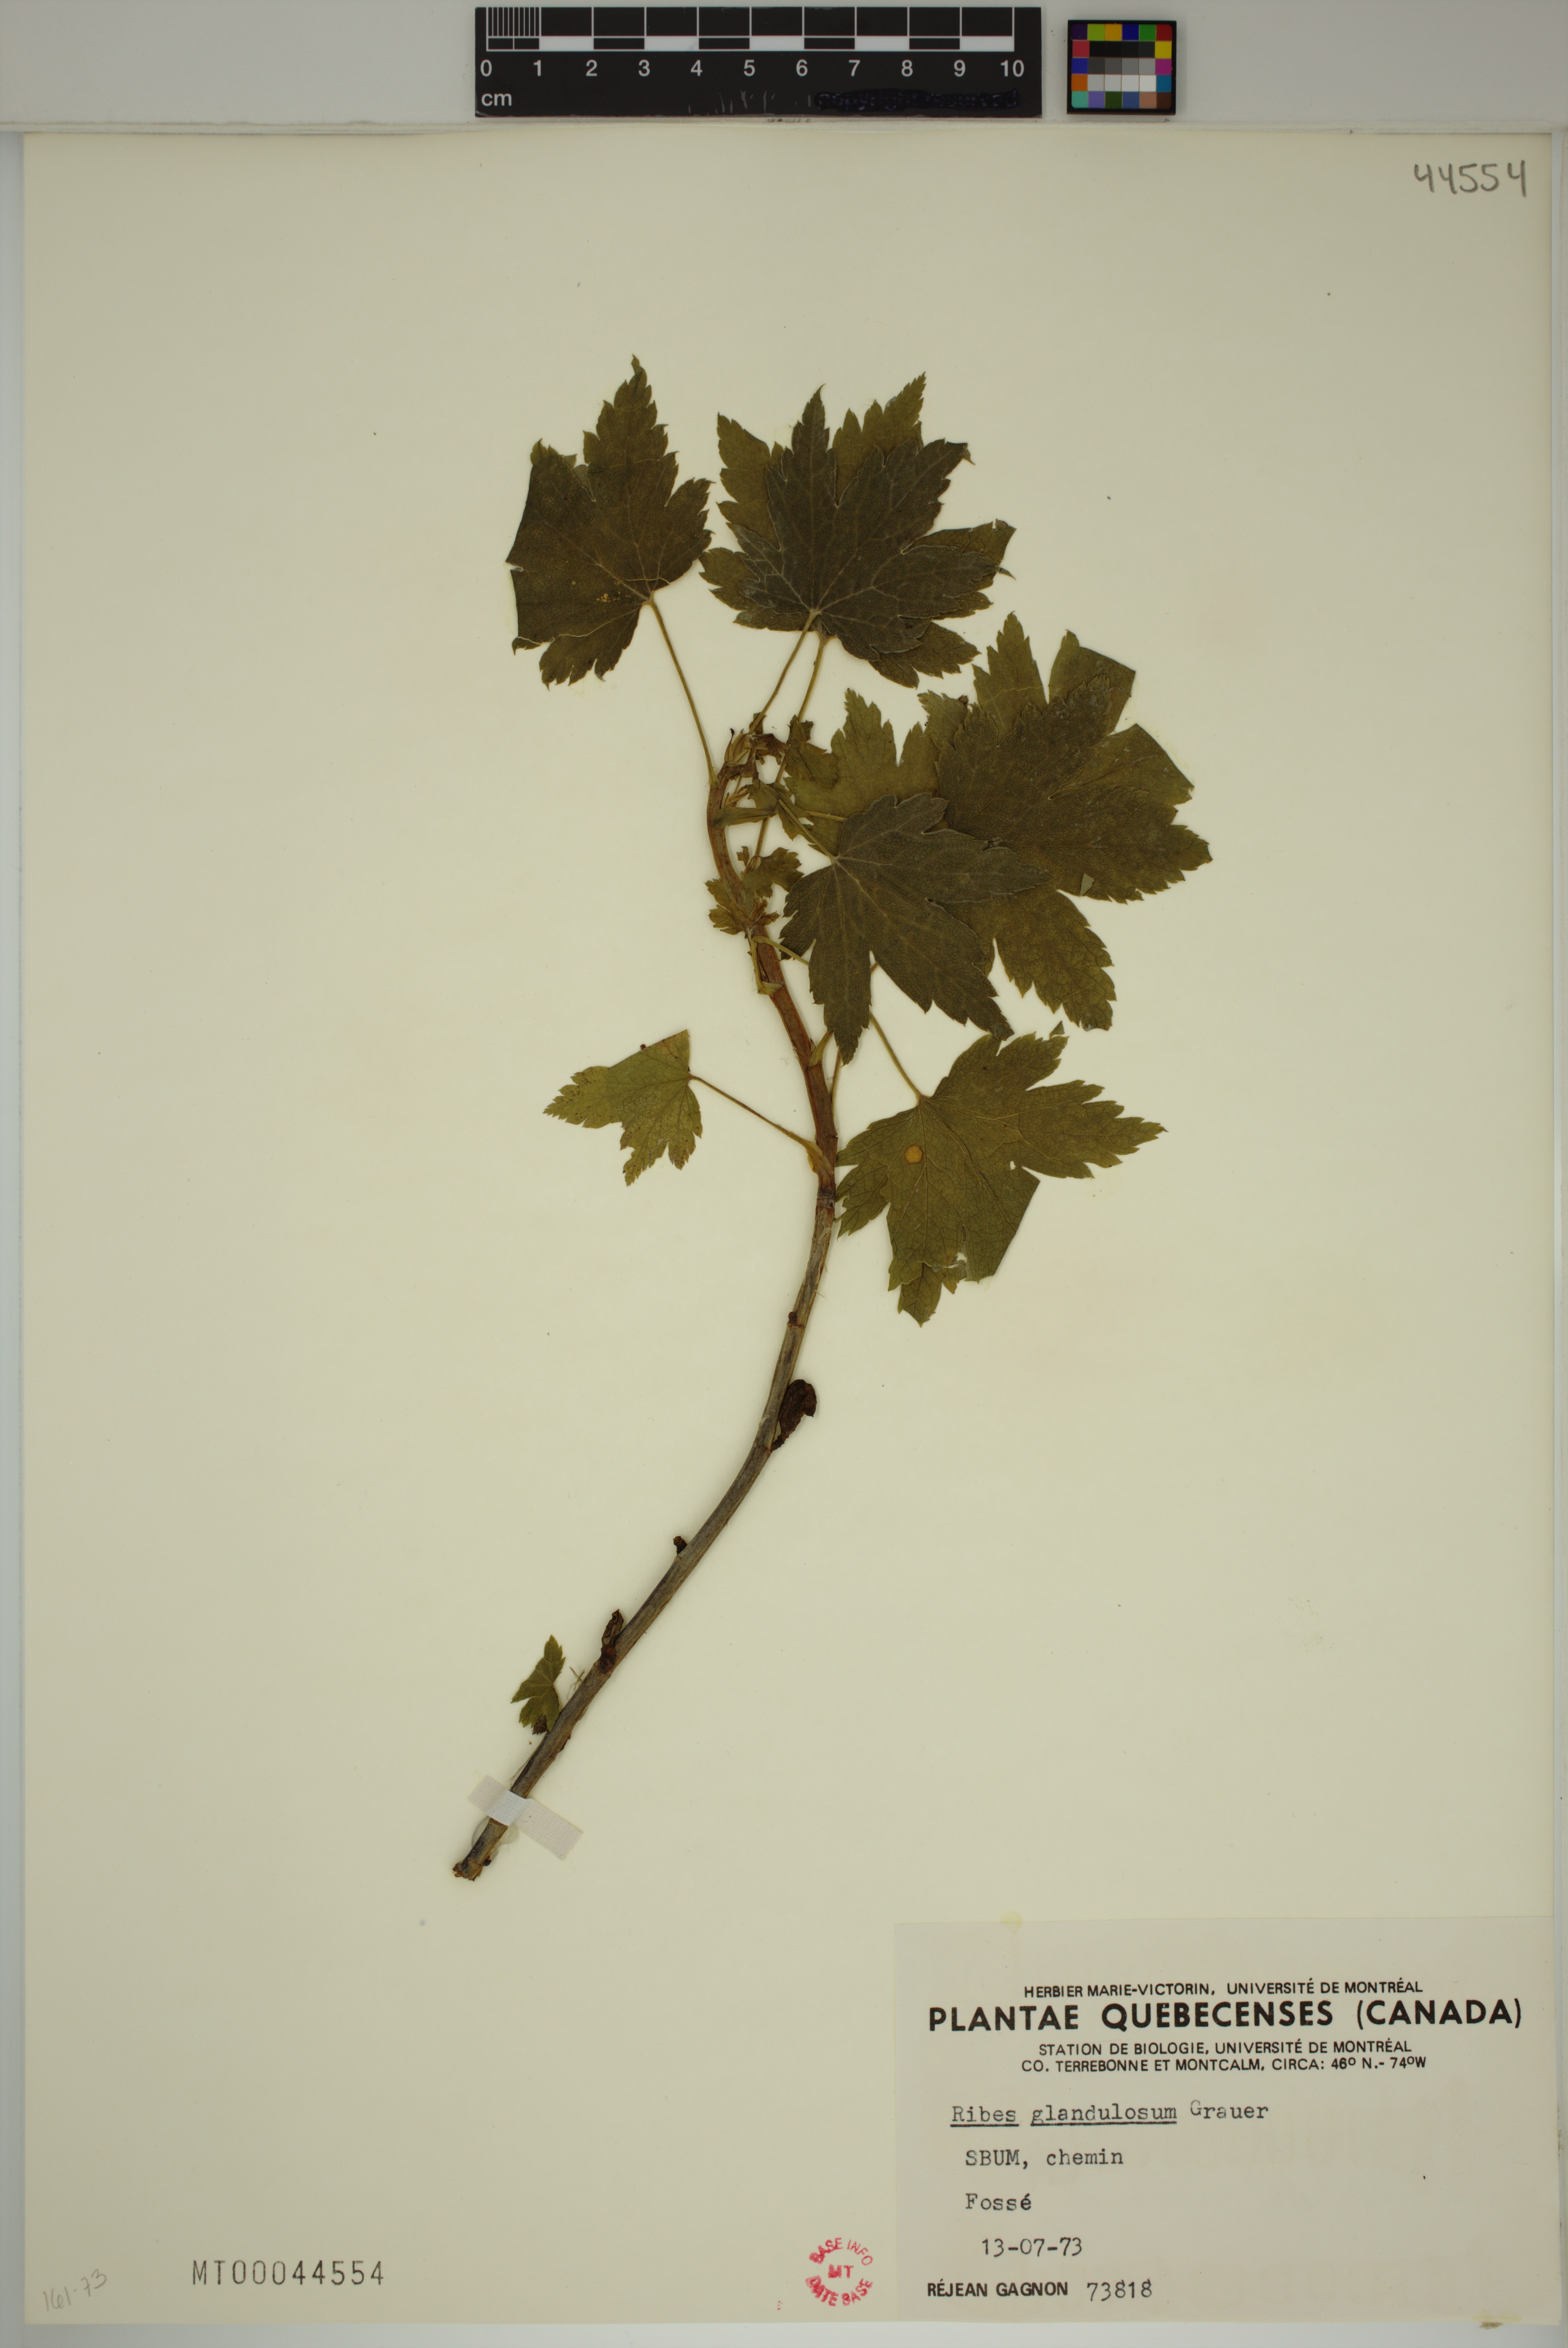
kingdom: Plantae
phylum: Tracheophyta
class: Magnoliopsida
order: Saxifragales
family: Grossulariaceae
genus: Ribes
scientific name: Ribes glandulosum
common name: Skunk currant
